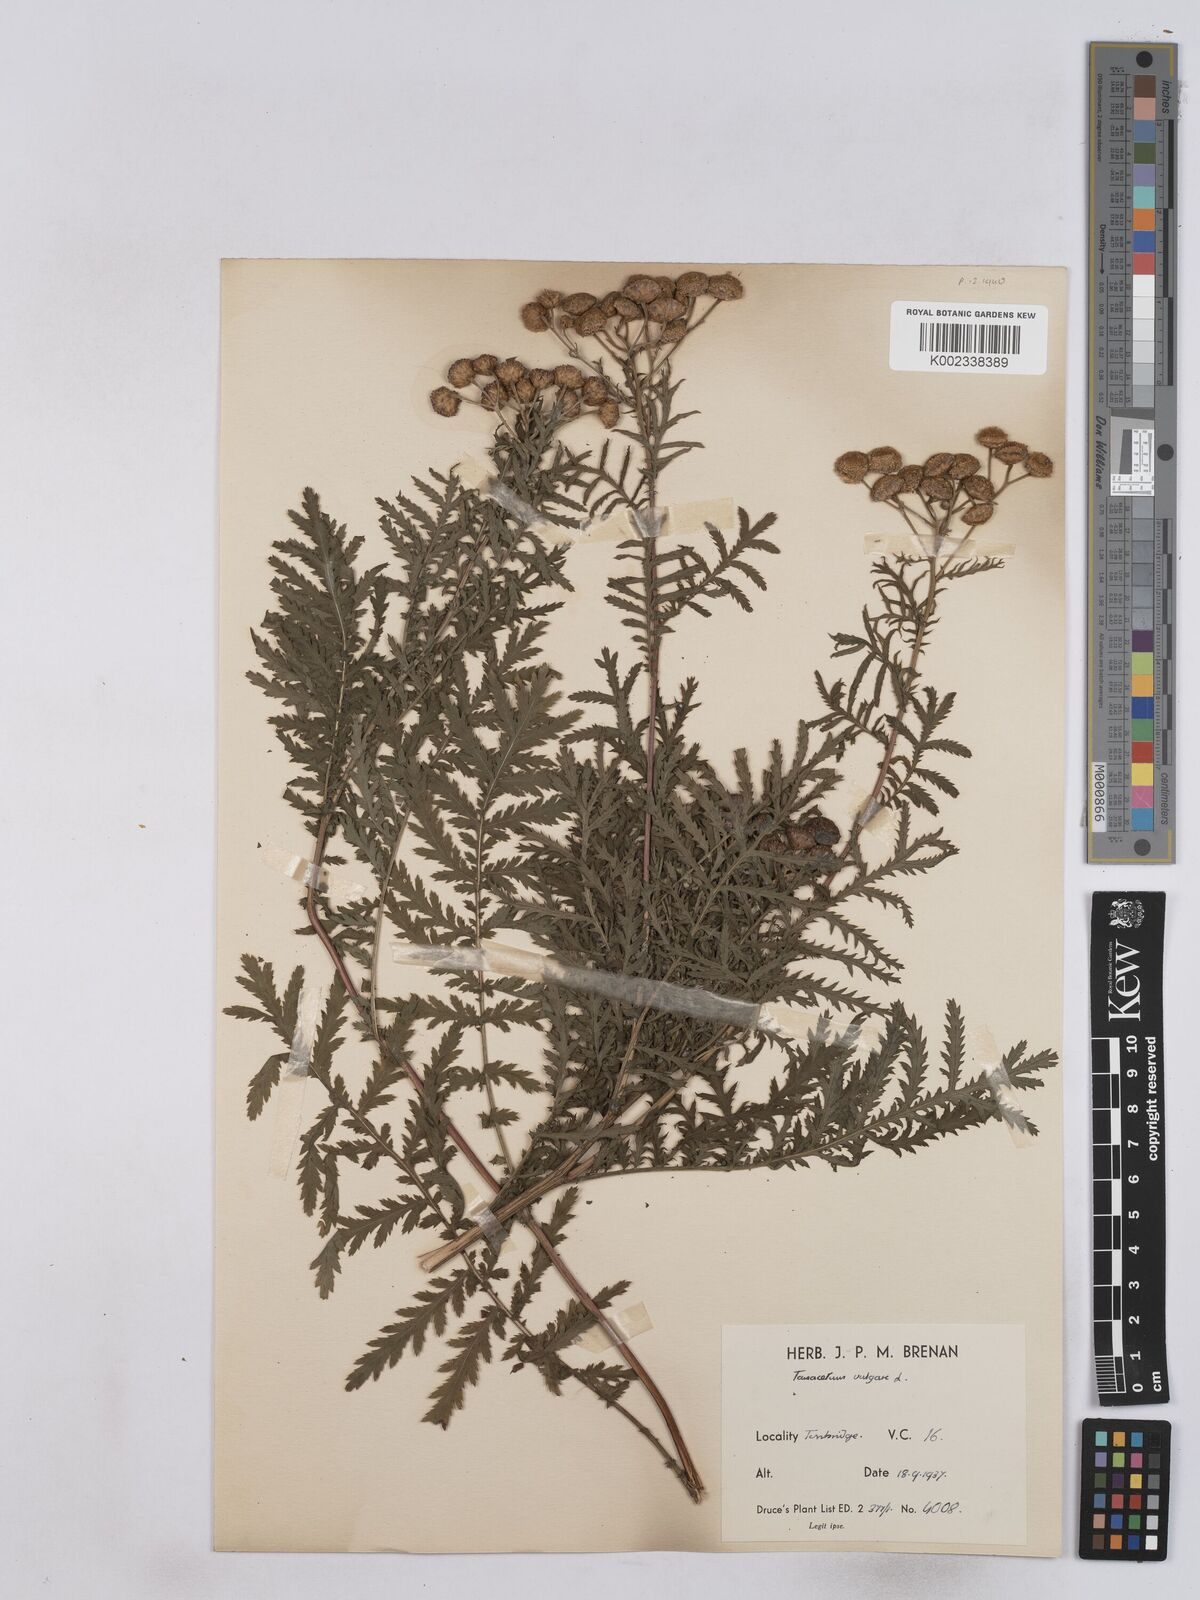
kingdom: Plantae
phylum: Tracheophyta
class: Magnoliopsida
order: Asterales
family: Asteraceae
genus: Tanacetum
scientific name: Tanacetum vulgare
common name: Common tansy
